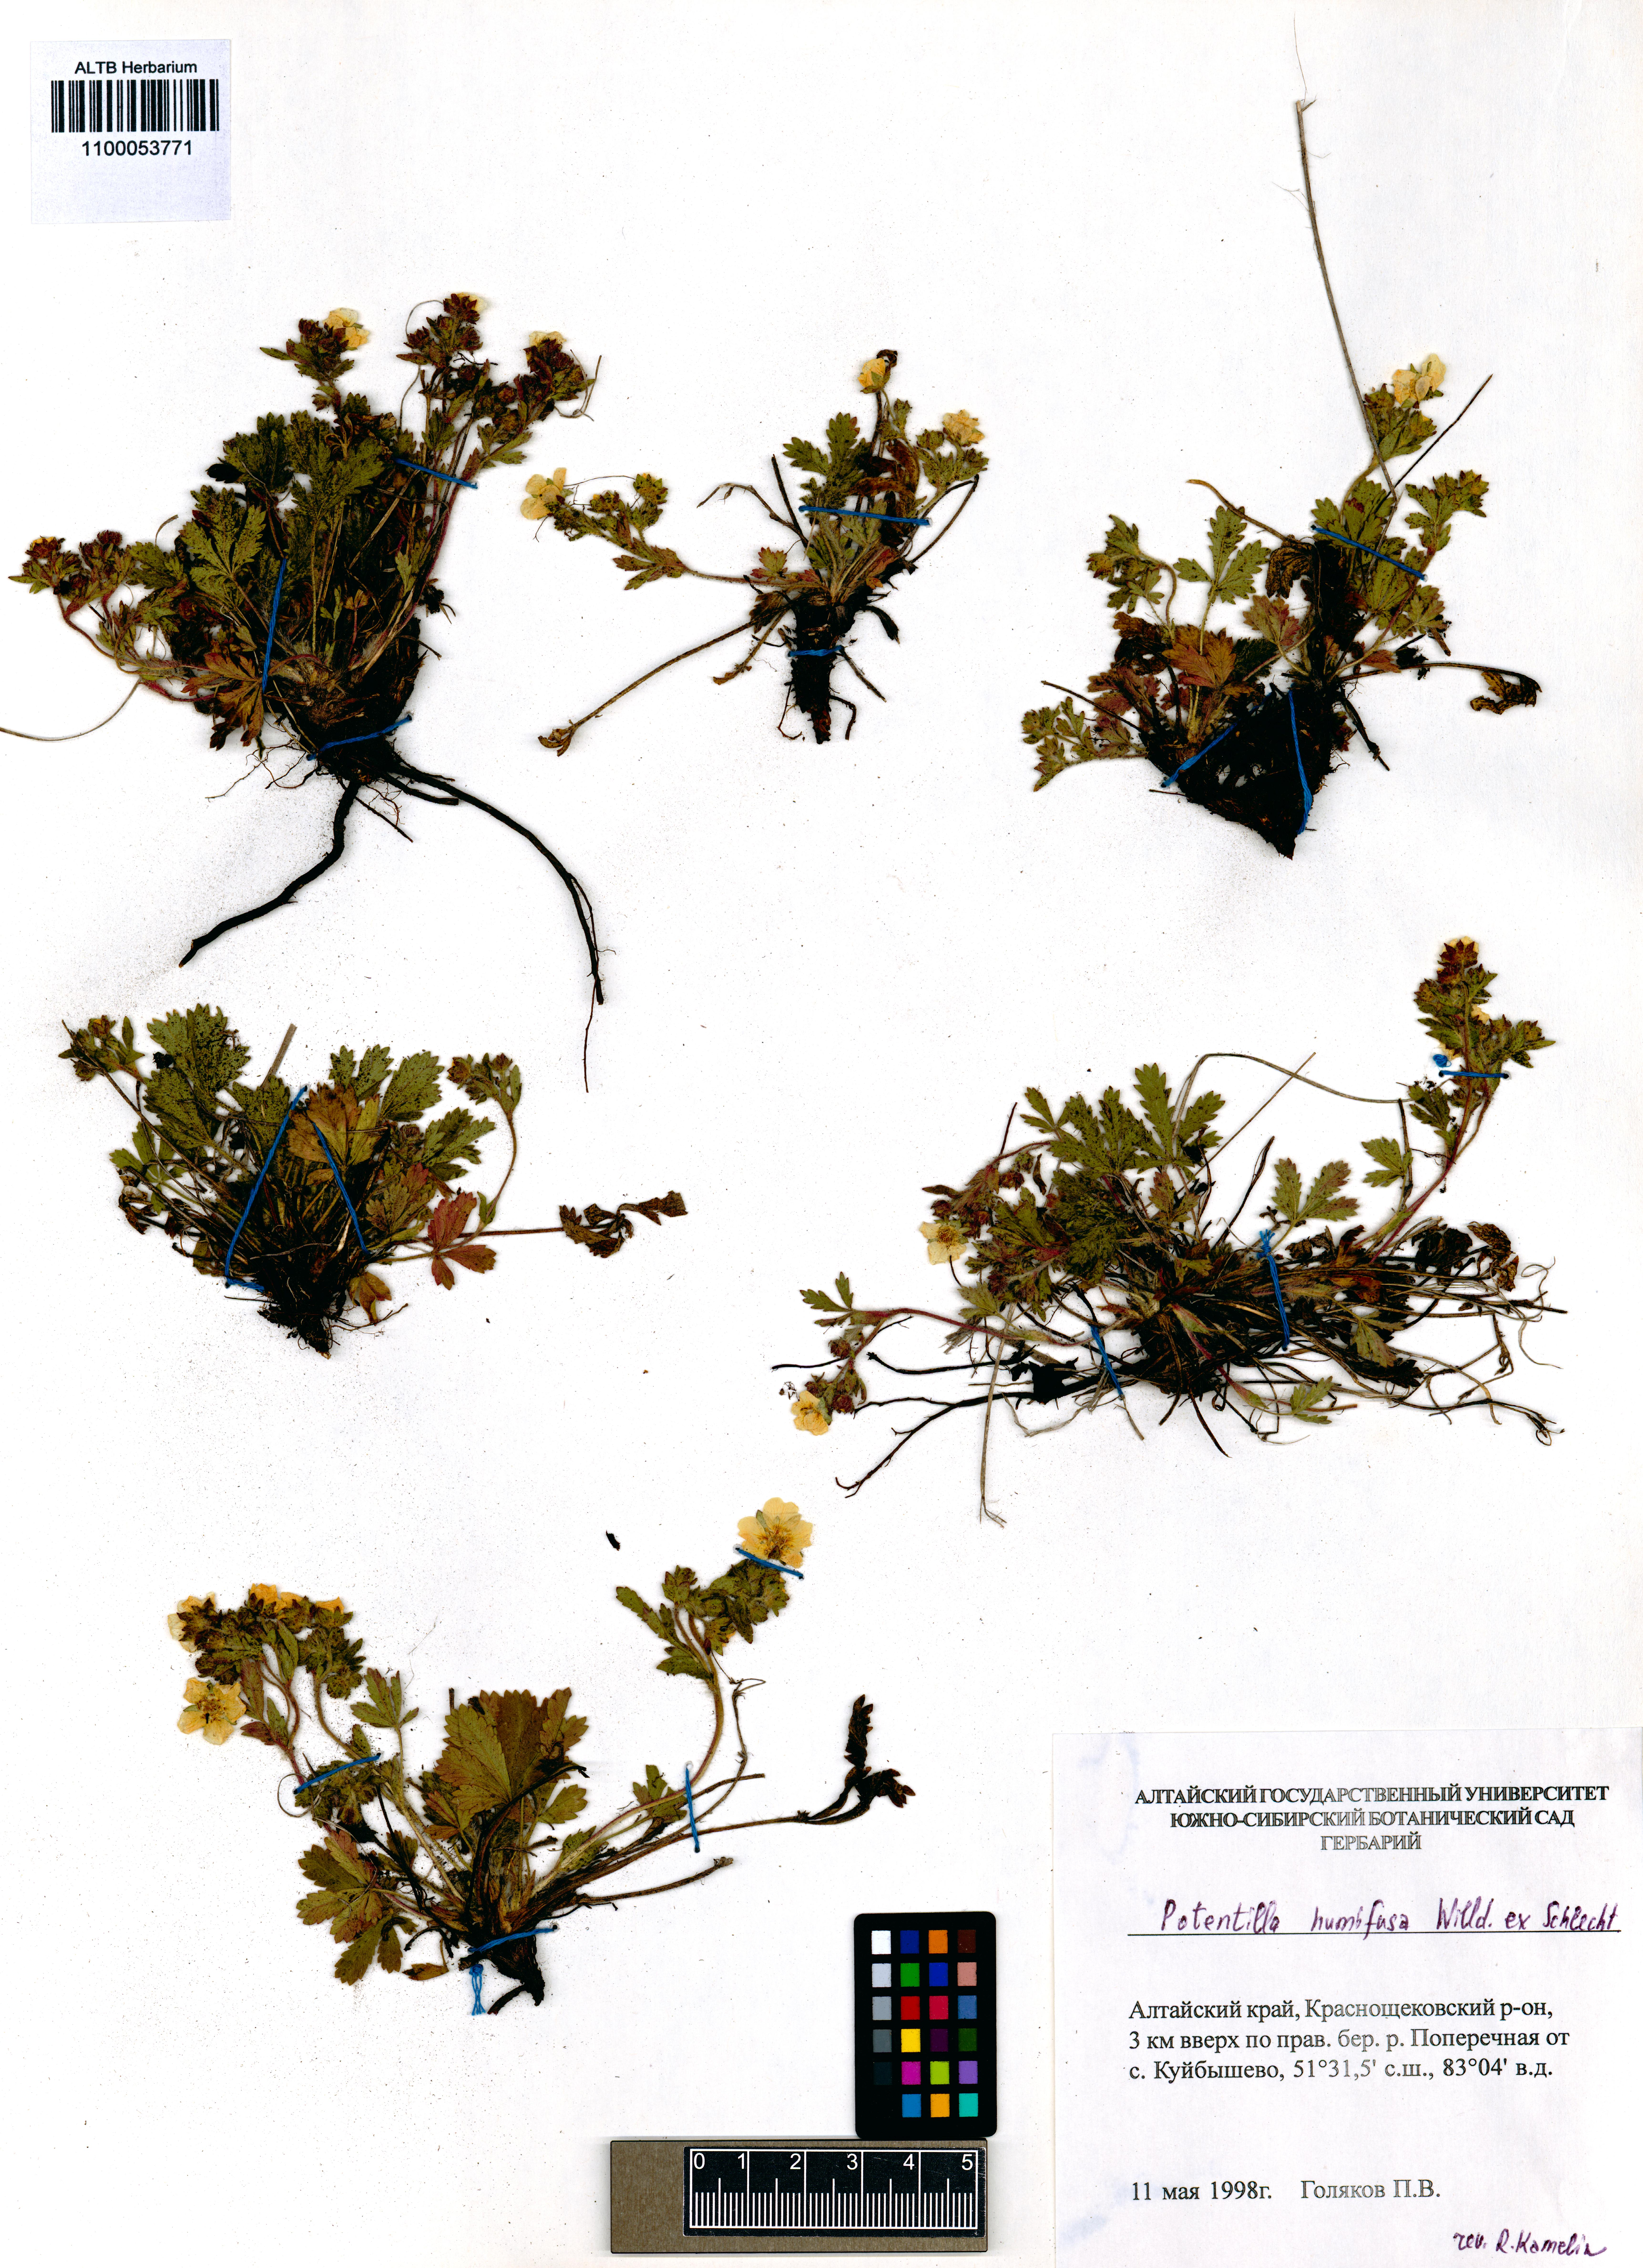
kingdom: Plantae
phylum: Tracheophyta
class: Magnoliopsida
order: Rosales
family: Rosaceae
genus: Potentilla
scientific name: Potentilla humifusa
